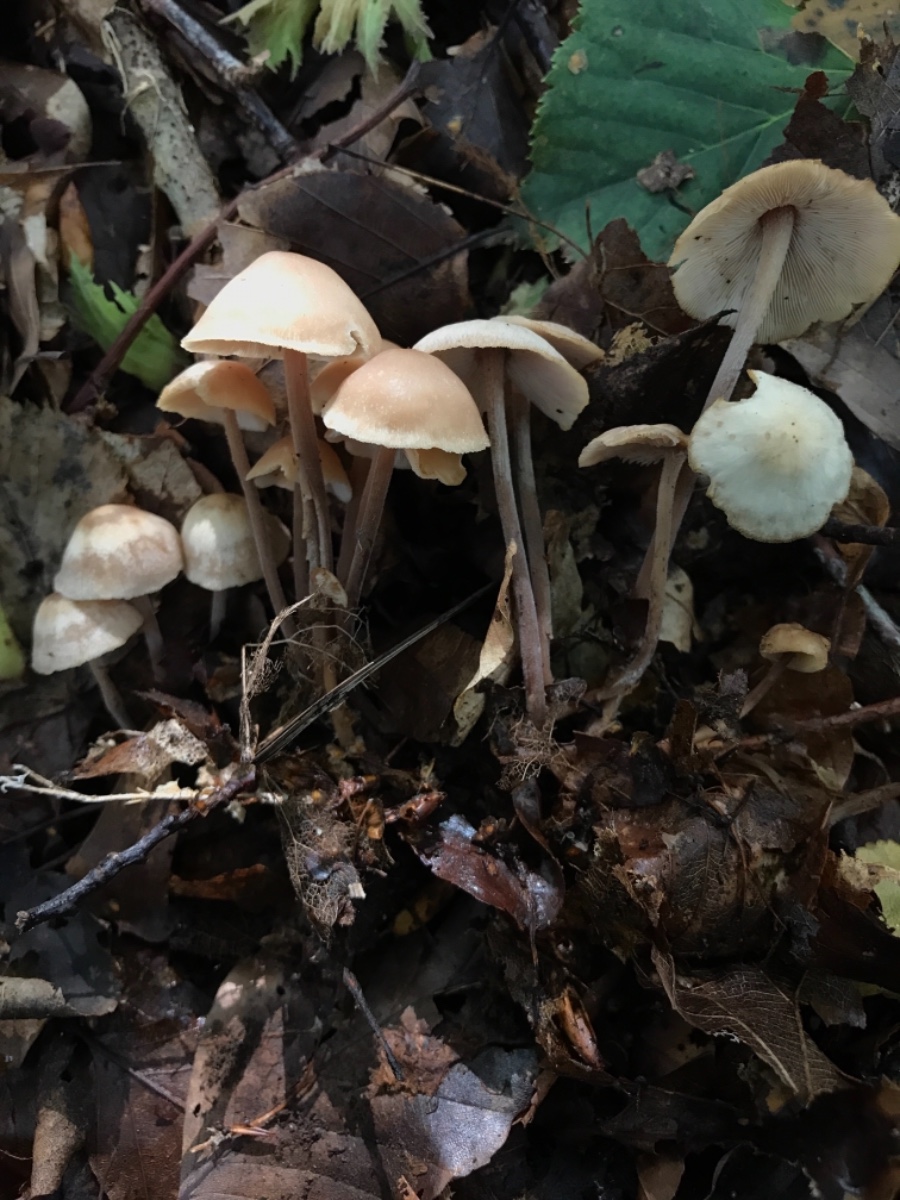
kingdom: Fungi
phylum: Basidiomycota
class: Agaricomycetes
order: Agaricales
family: Omphalotaceae
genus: Collybiopsis
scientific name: Collybiopsis confluens
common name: knippe-fladhat
